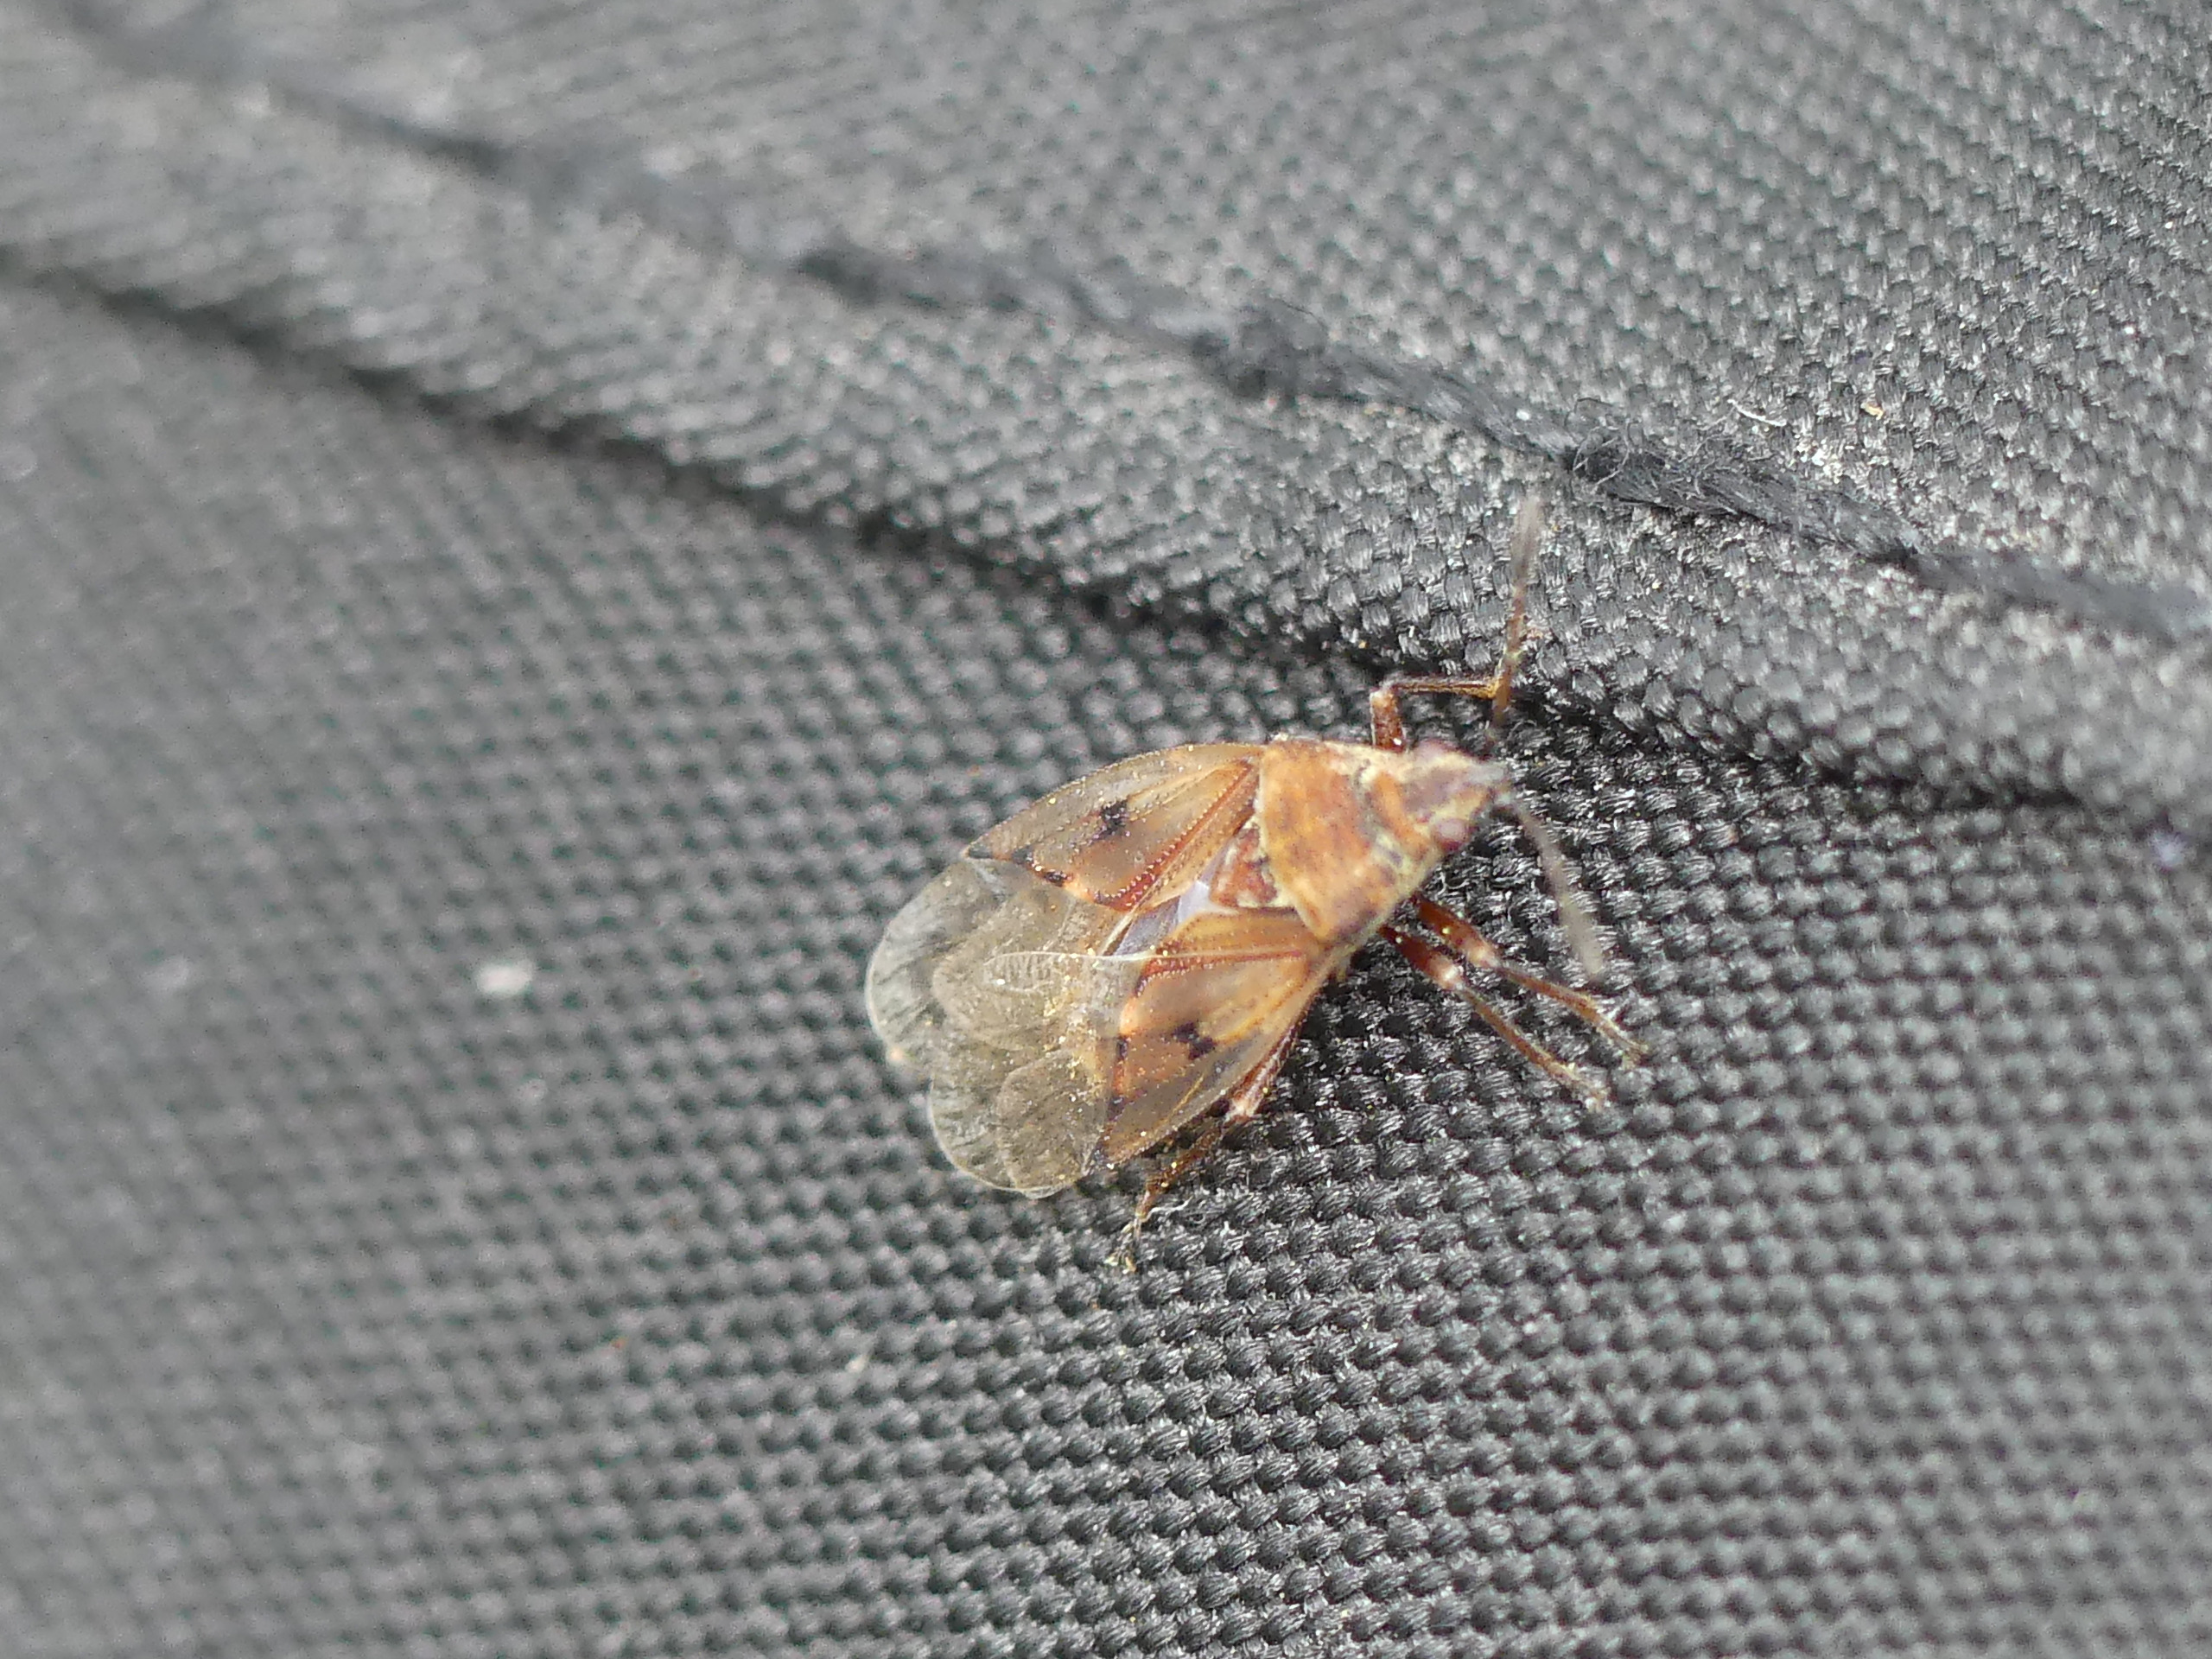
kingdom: Animalia
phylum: Arthropoda
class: Insecta
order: Hemiptera
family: Lygaeidae
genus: Kleidocerys
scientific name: Kleidocerys resedae
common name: Birkefrøtæge
